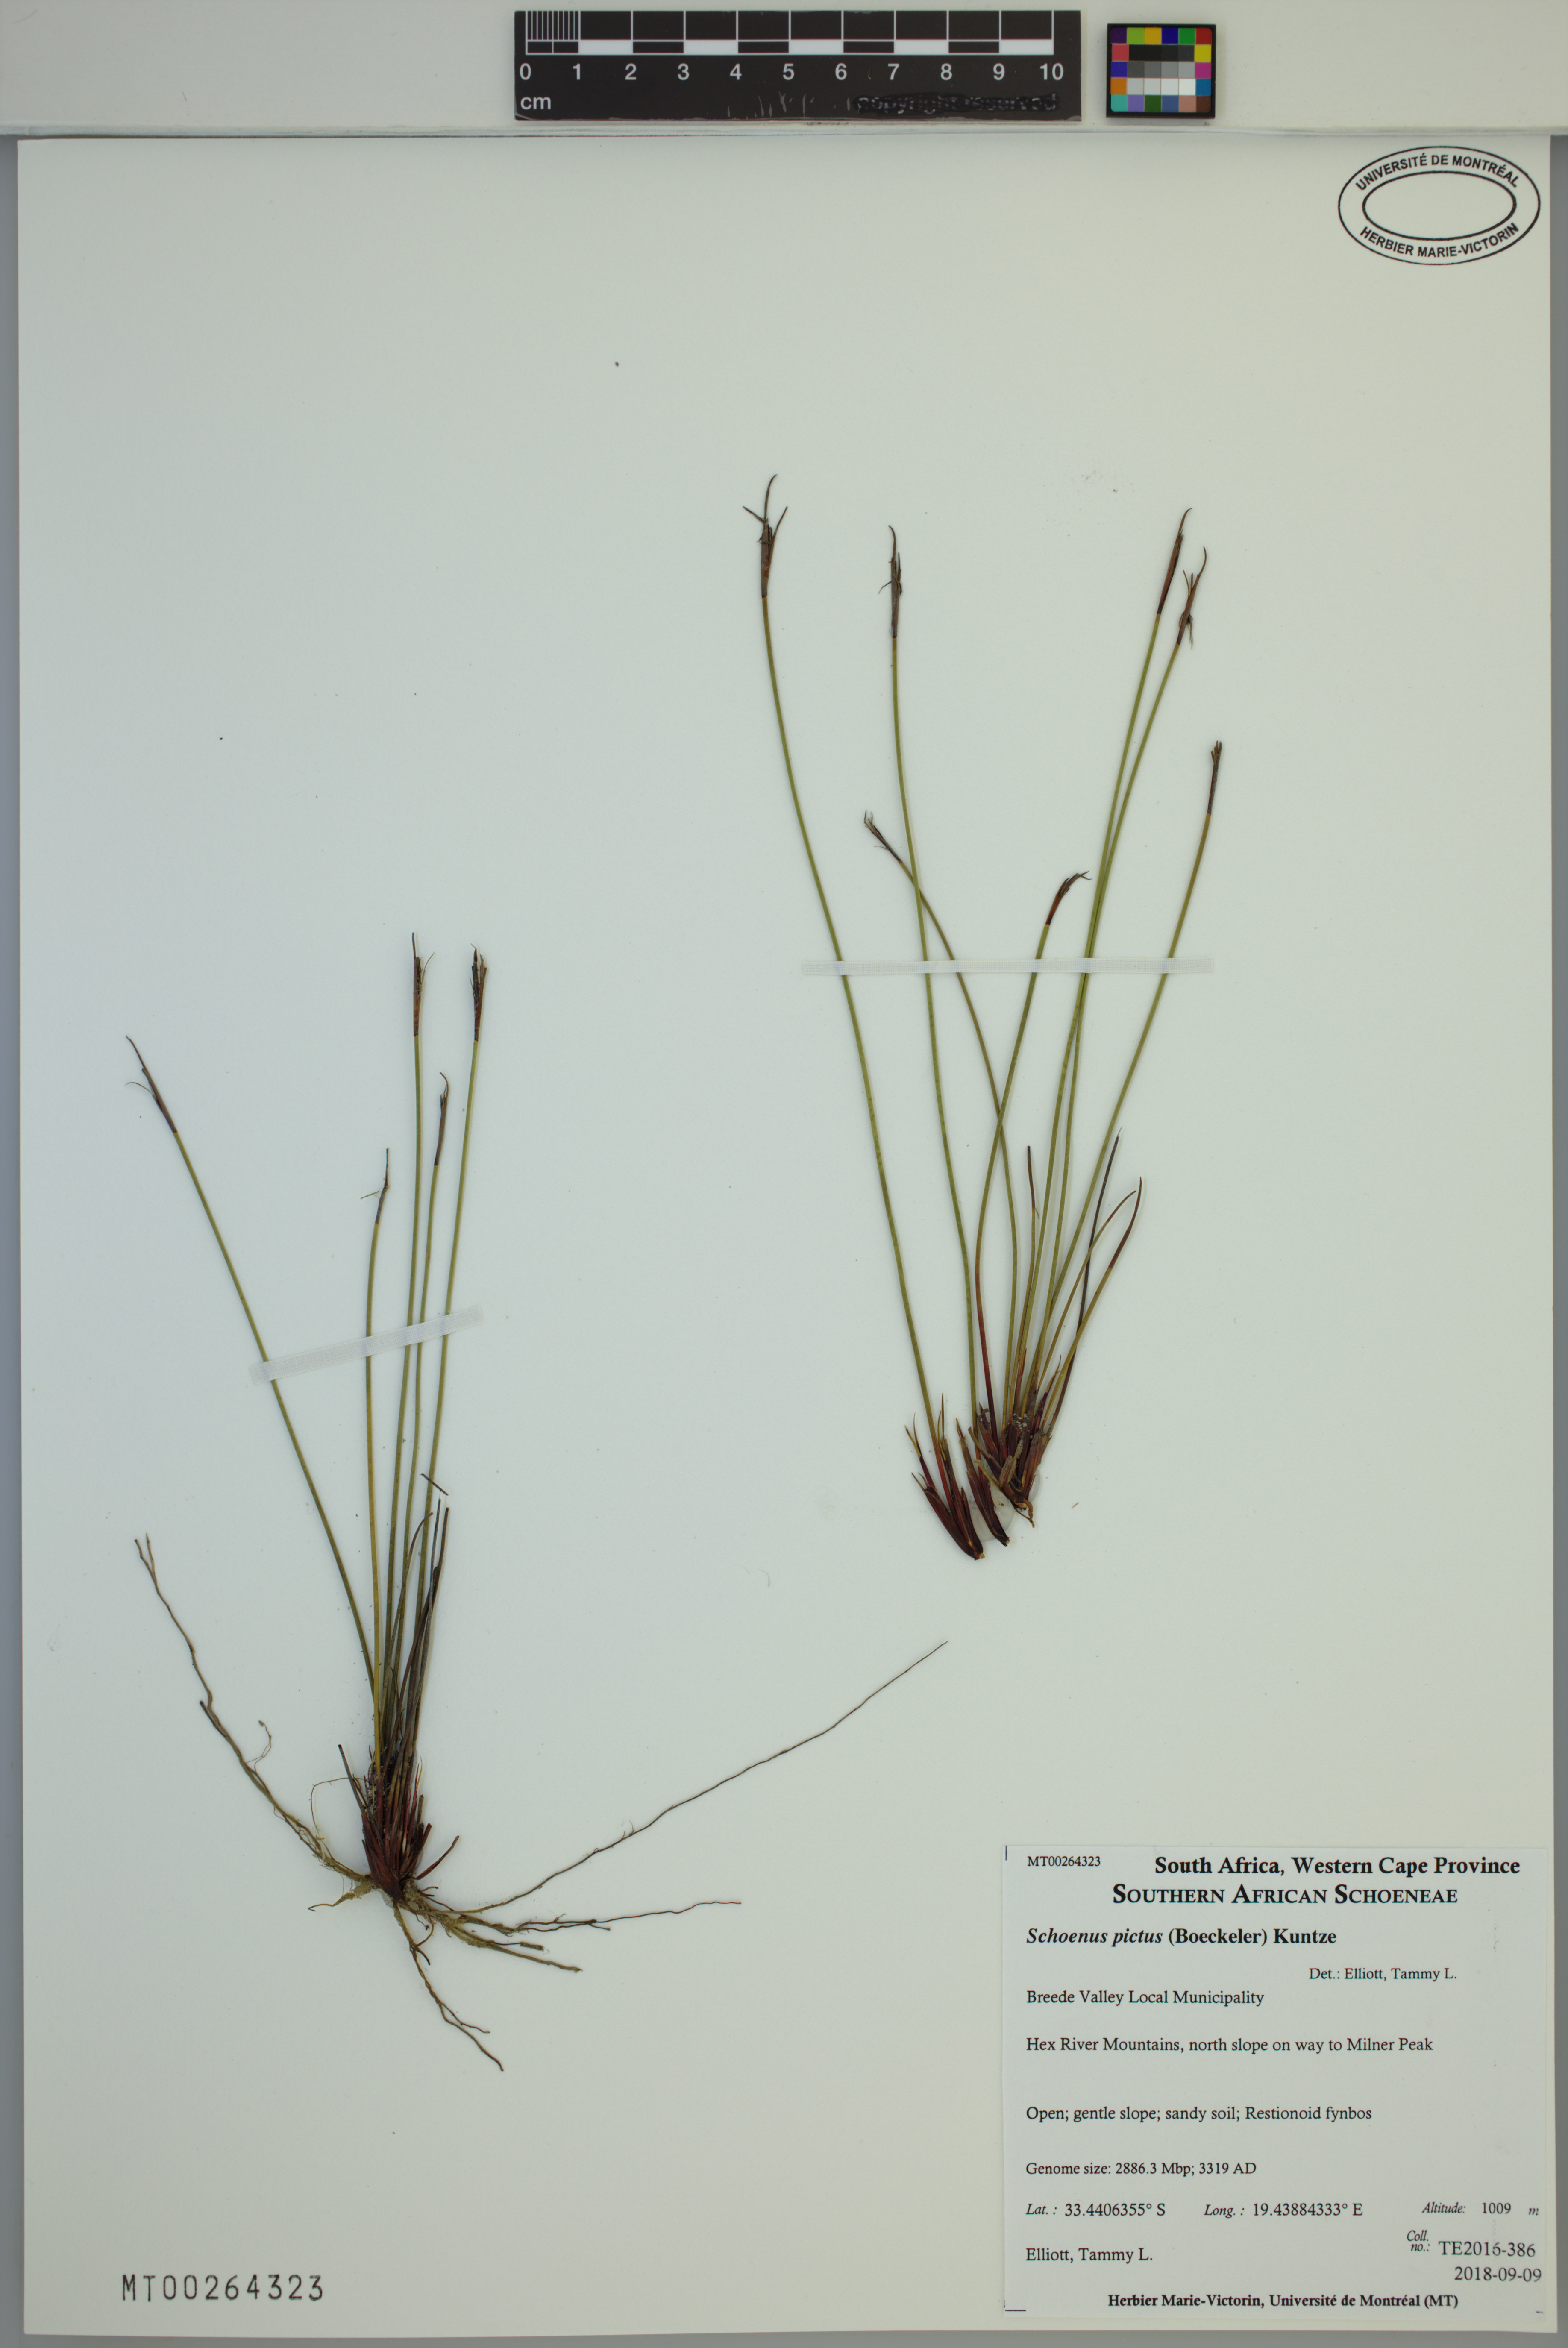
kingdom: Plantae
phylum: Tracheophyta
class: Liliopsida
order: Poales
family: Cyperaceae
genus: Schoenus
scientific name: Schoenus pictus
